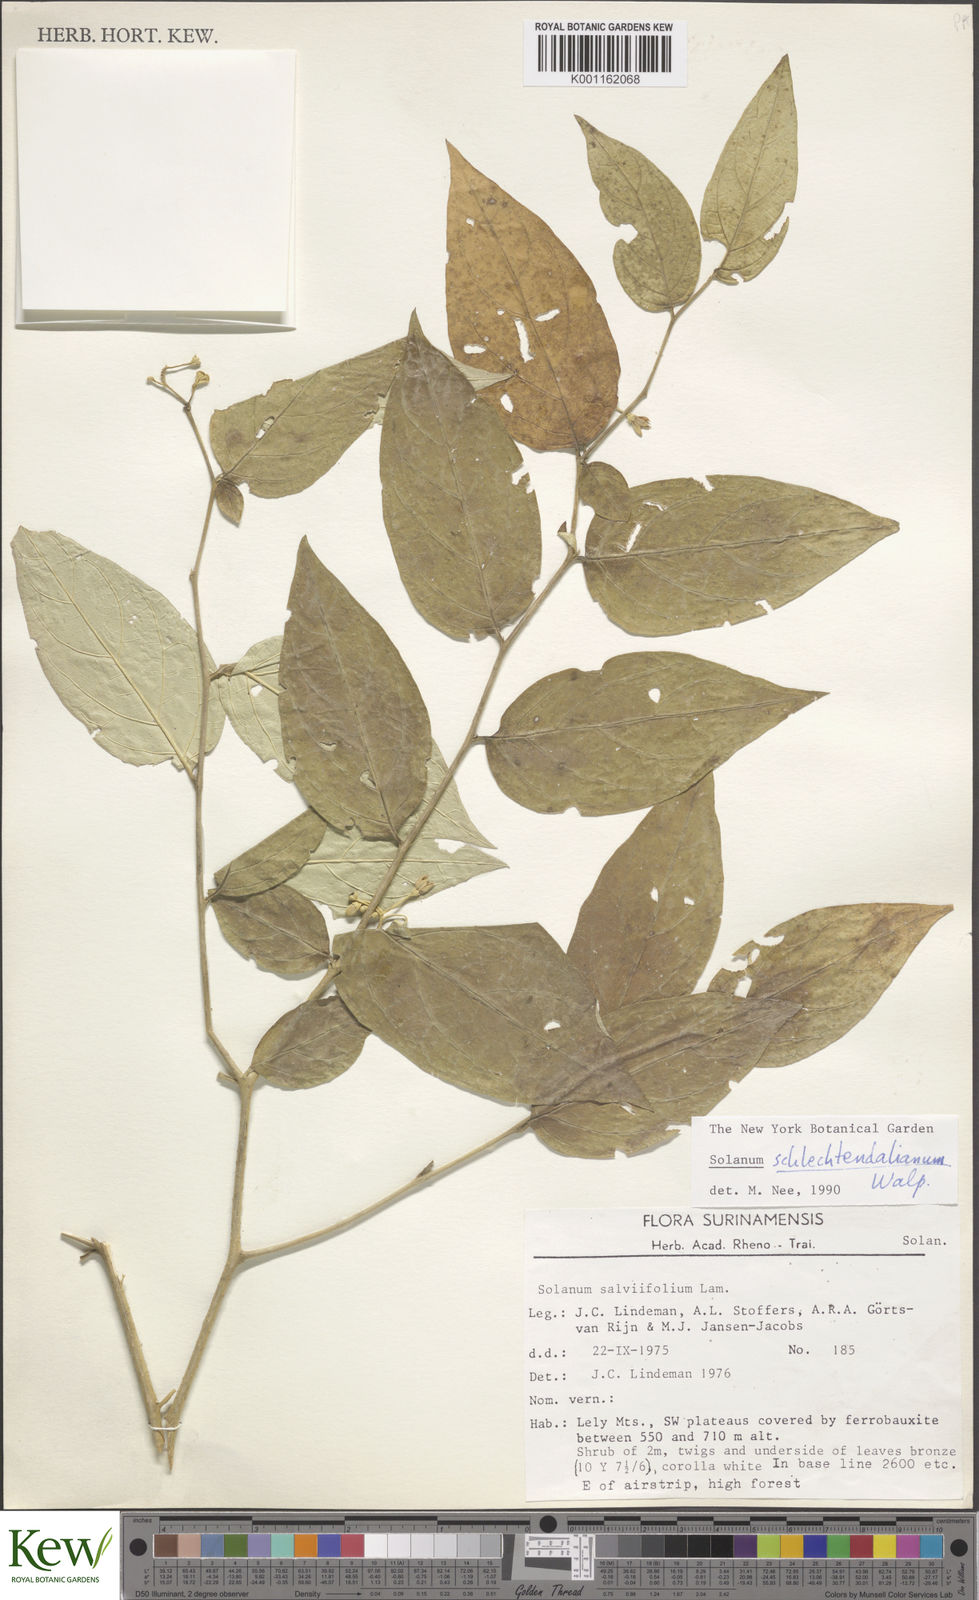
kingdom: Plantae
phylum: Tracheophyta
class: Magnoliopsida
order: Solanales
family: Solanaceae
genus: Solanum
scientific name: Solanum schlechtendalianum
